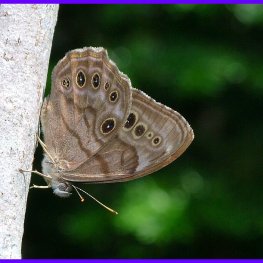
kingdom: Animalia
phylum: Arthropoda
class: Insecta
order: Lepidoptera
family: Nymphalidae
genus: Lethe
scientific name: Lethe anthedon
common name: Northern Pearly-Eye
